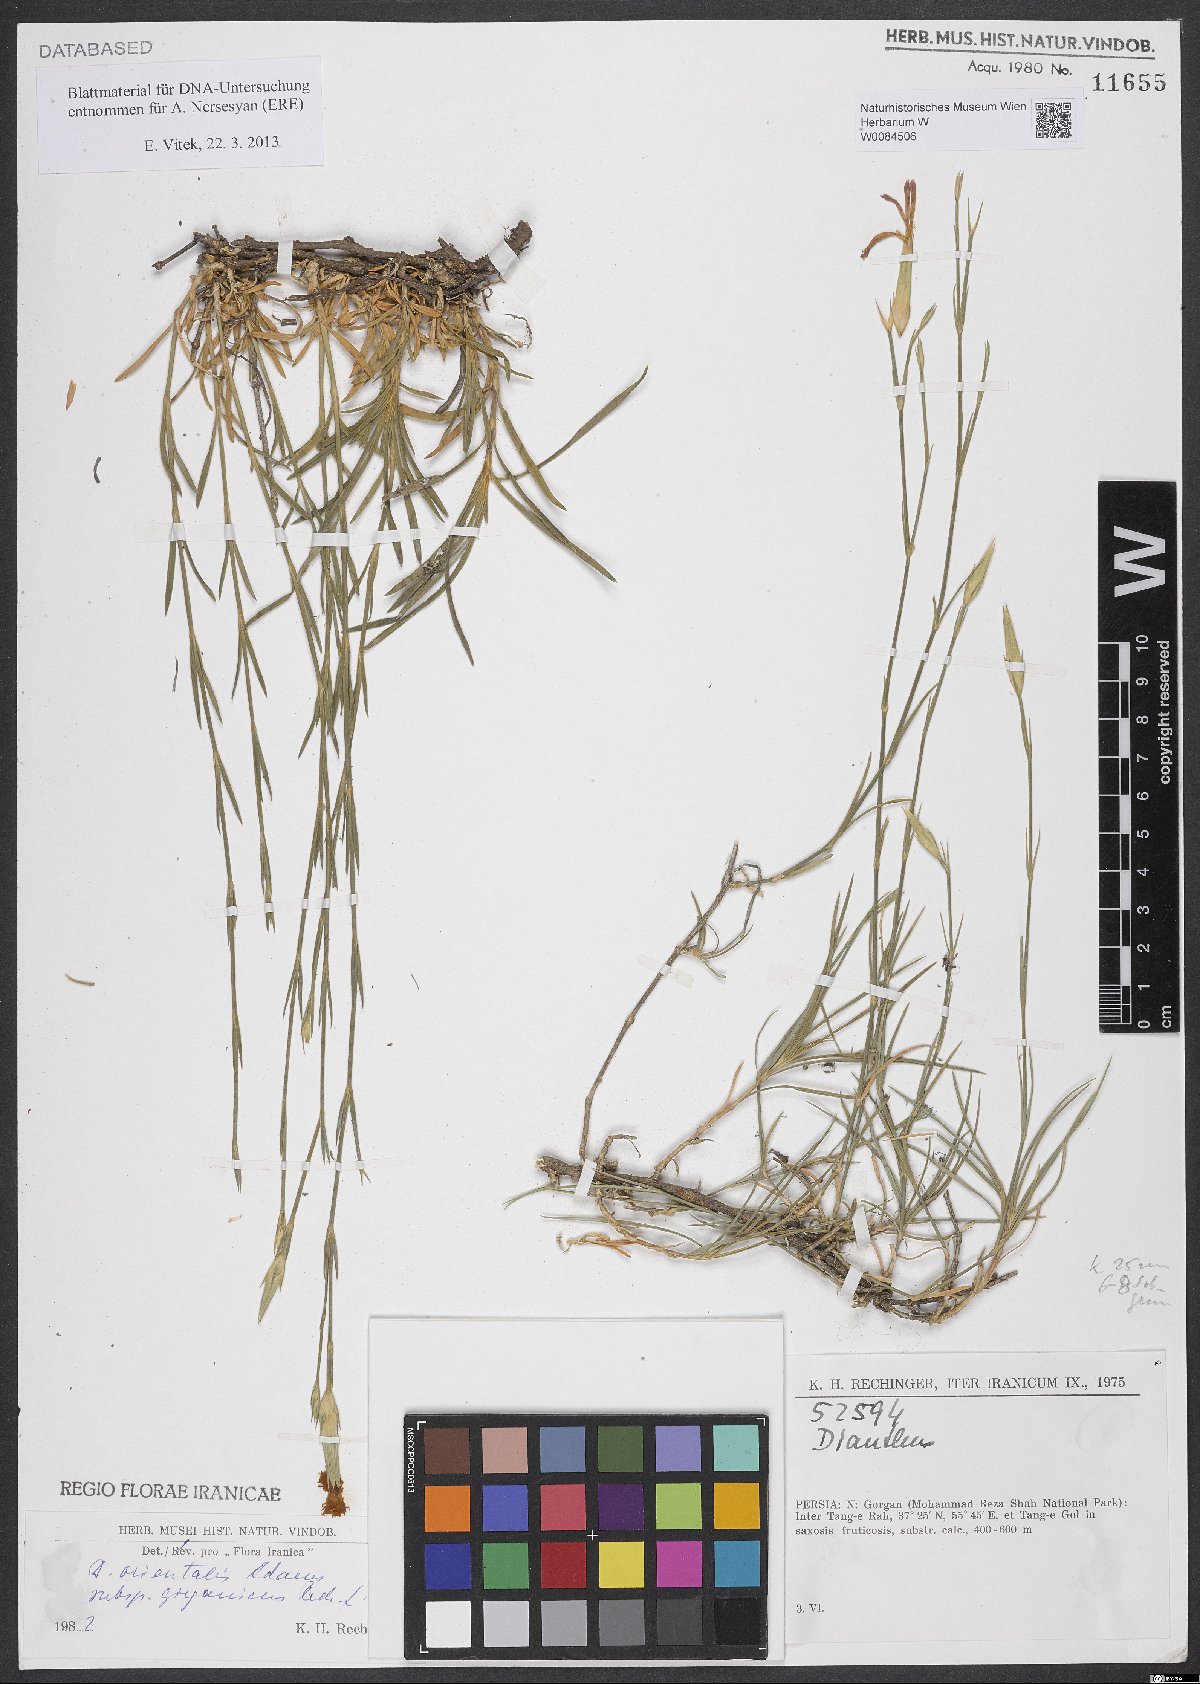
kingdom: Plantae
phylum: Tracheophyta
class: Magnoliopsida
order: Caryophyllales
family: Caryophyllaceae
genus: Dianthus
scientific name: Dianthus orientalis
